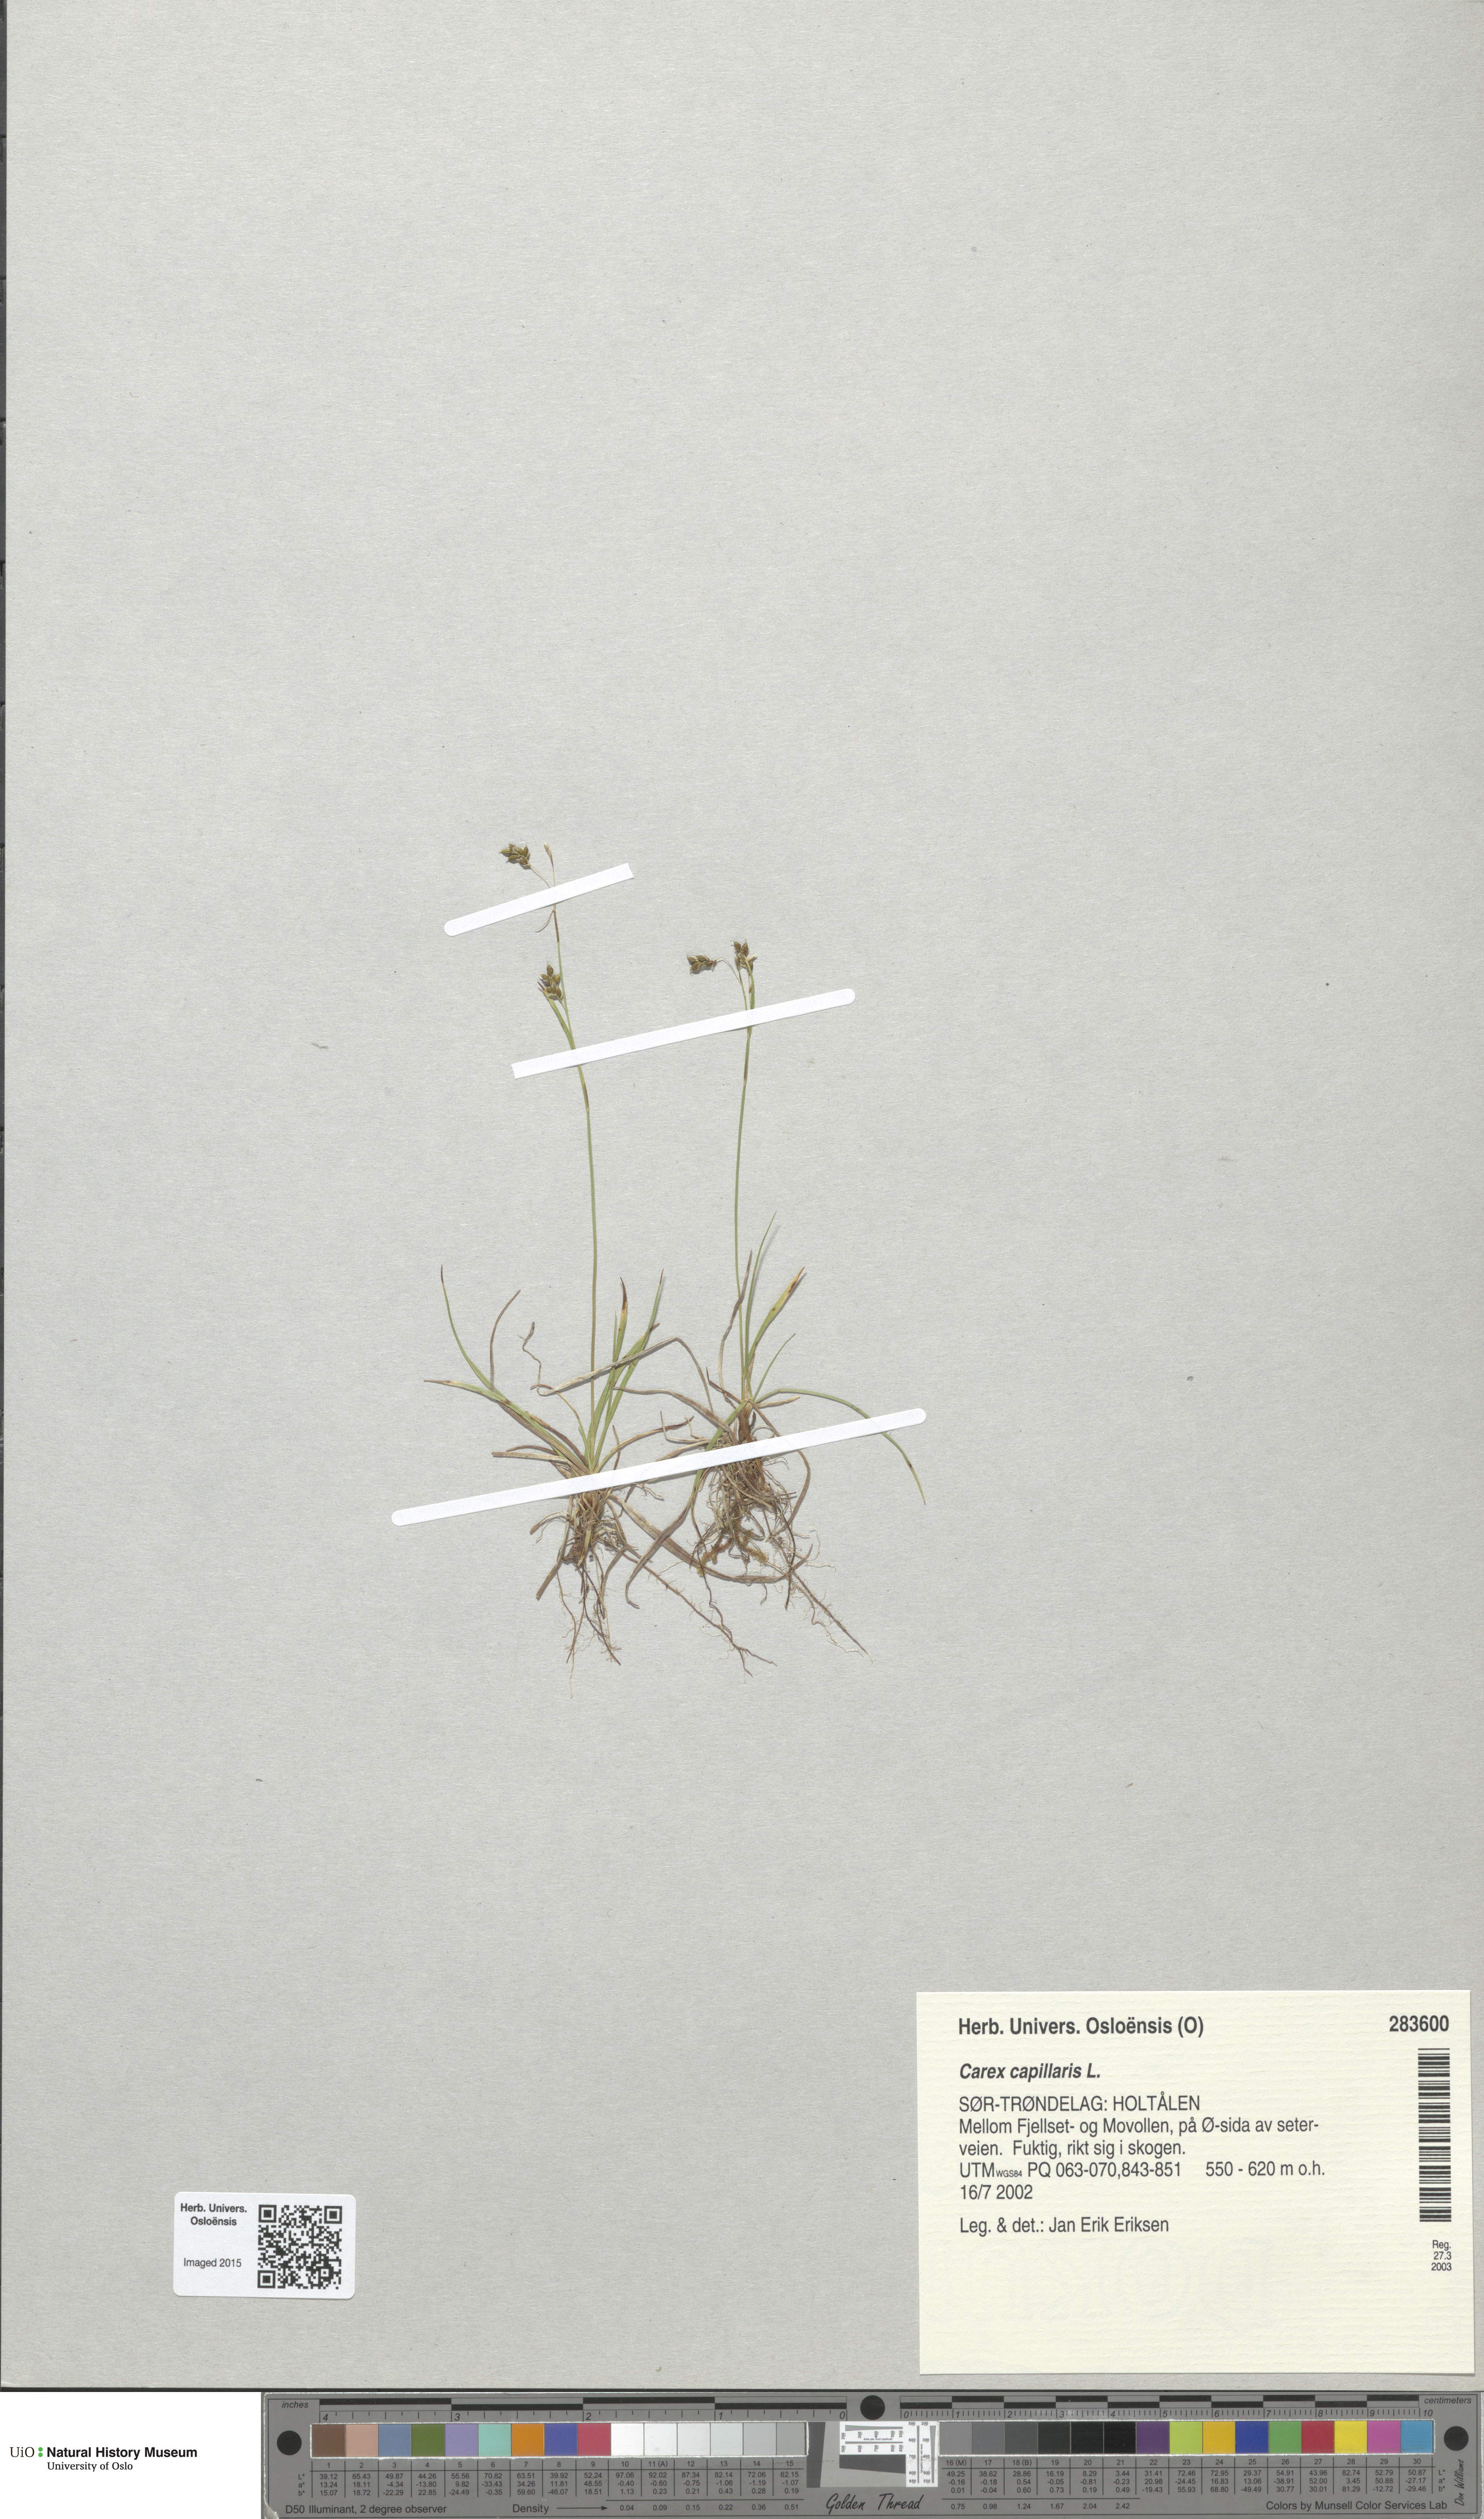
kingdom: Plantae
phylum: Tracheophyta
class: Liliopsida
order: Poales
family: Cyperaceae
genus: Carex
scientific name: Carex capillaris
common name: Hair sedge
